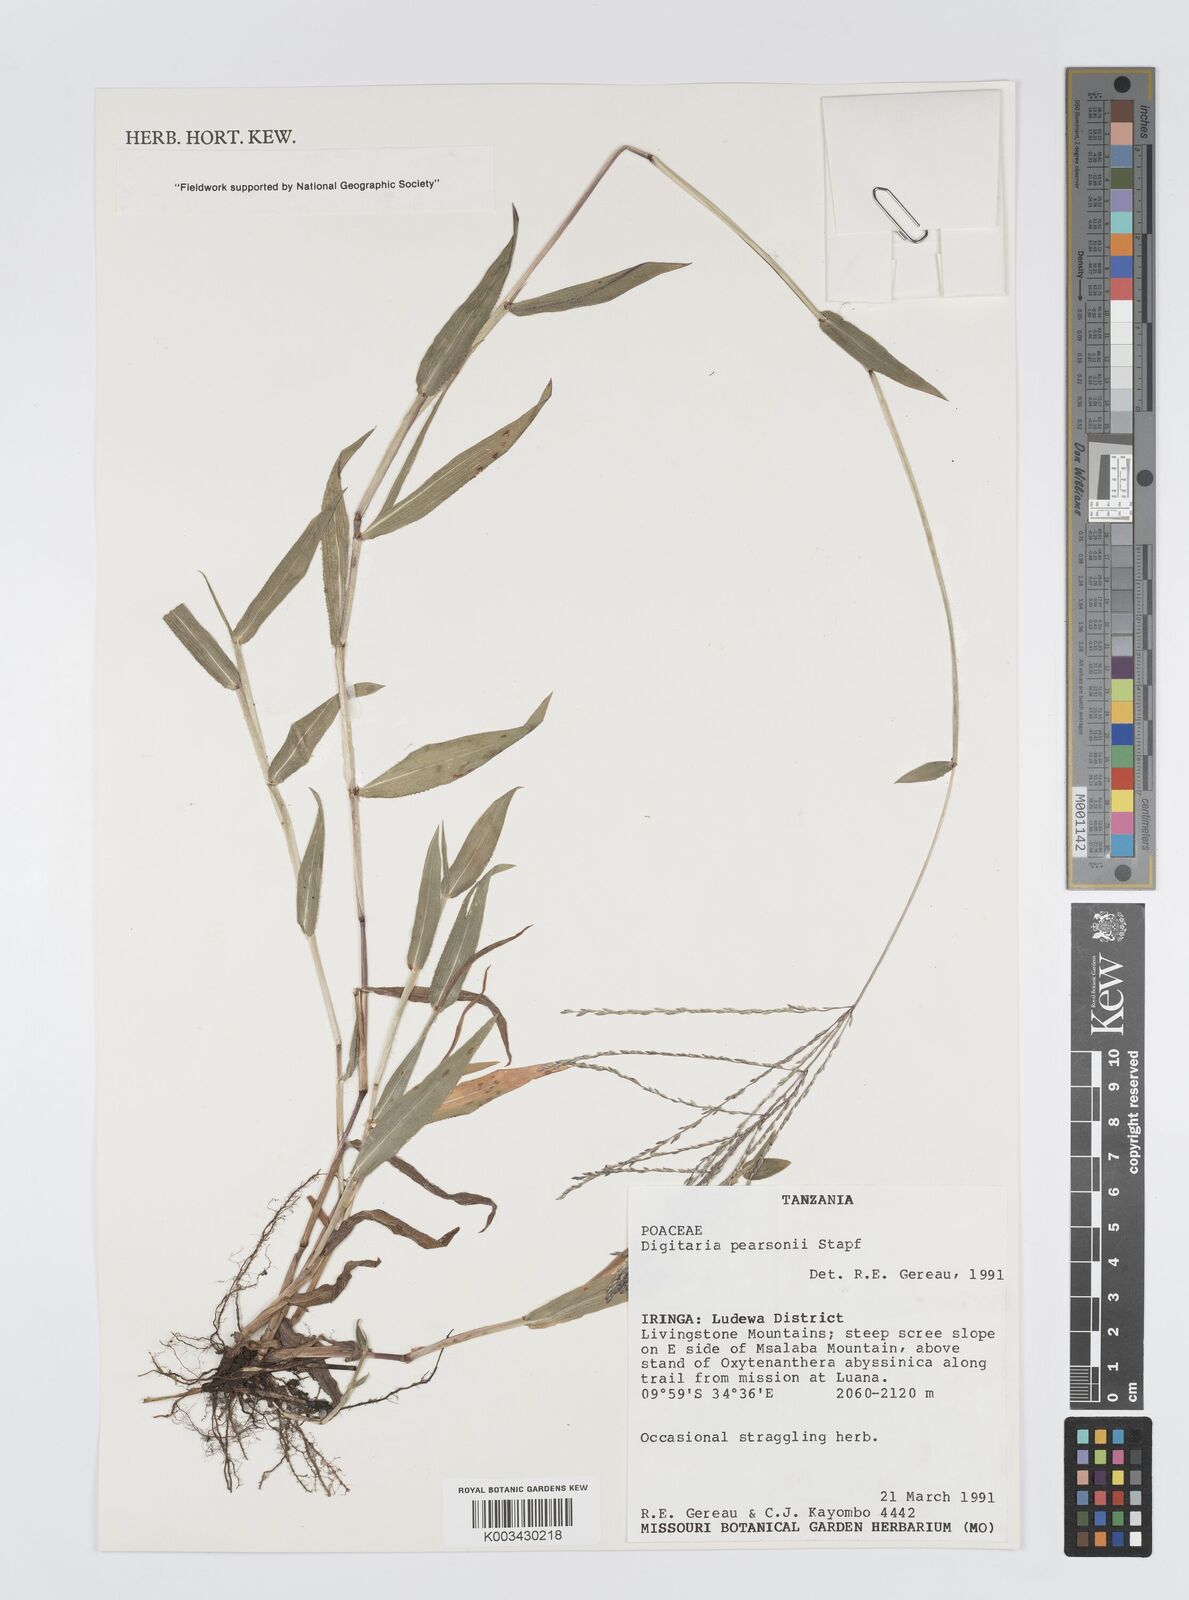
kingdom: Plantae
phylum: Tracheophyta
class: Liliopsida
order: Poales
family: Poaceae
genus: Digitaria
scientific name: Digitaria pearsonii
